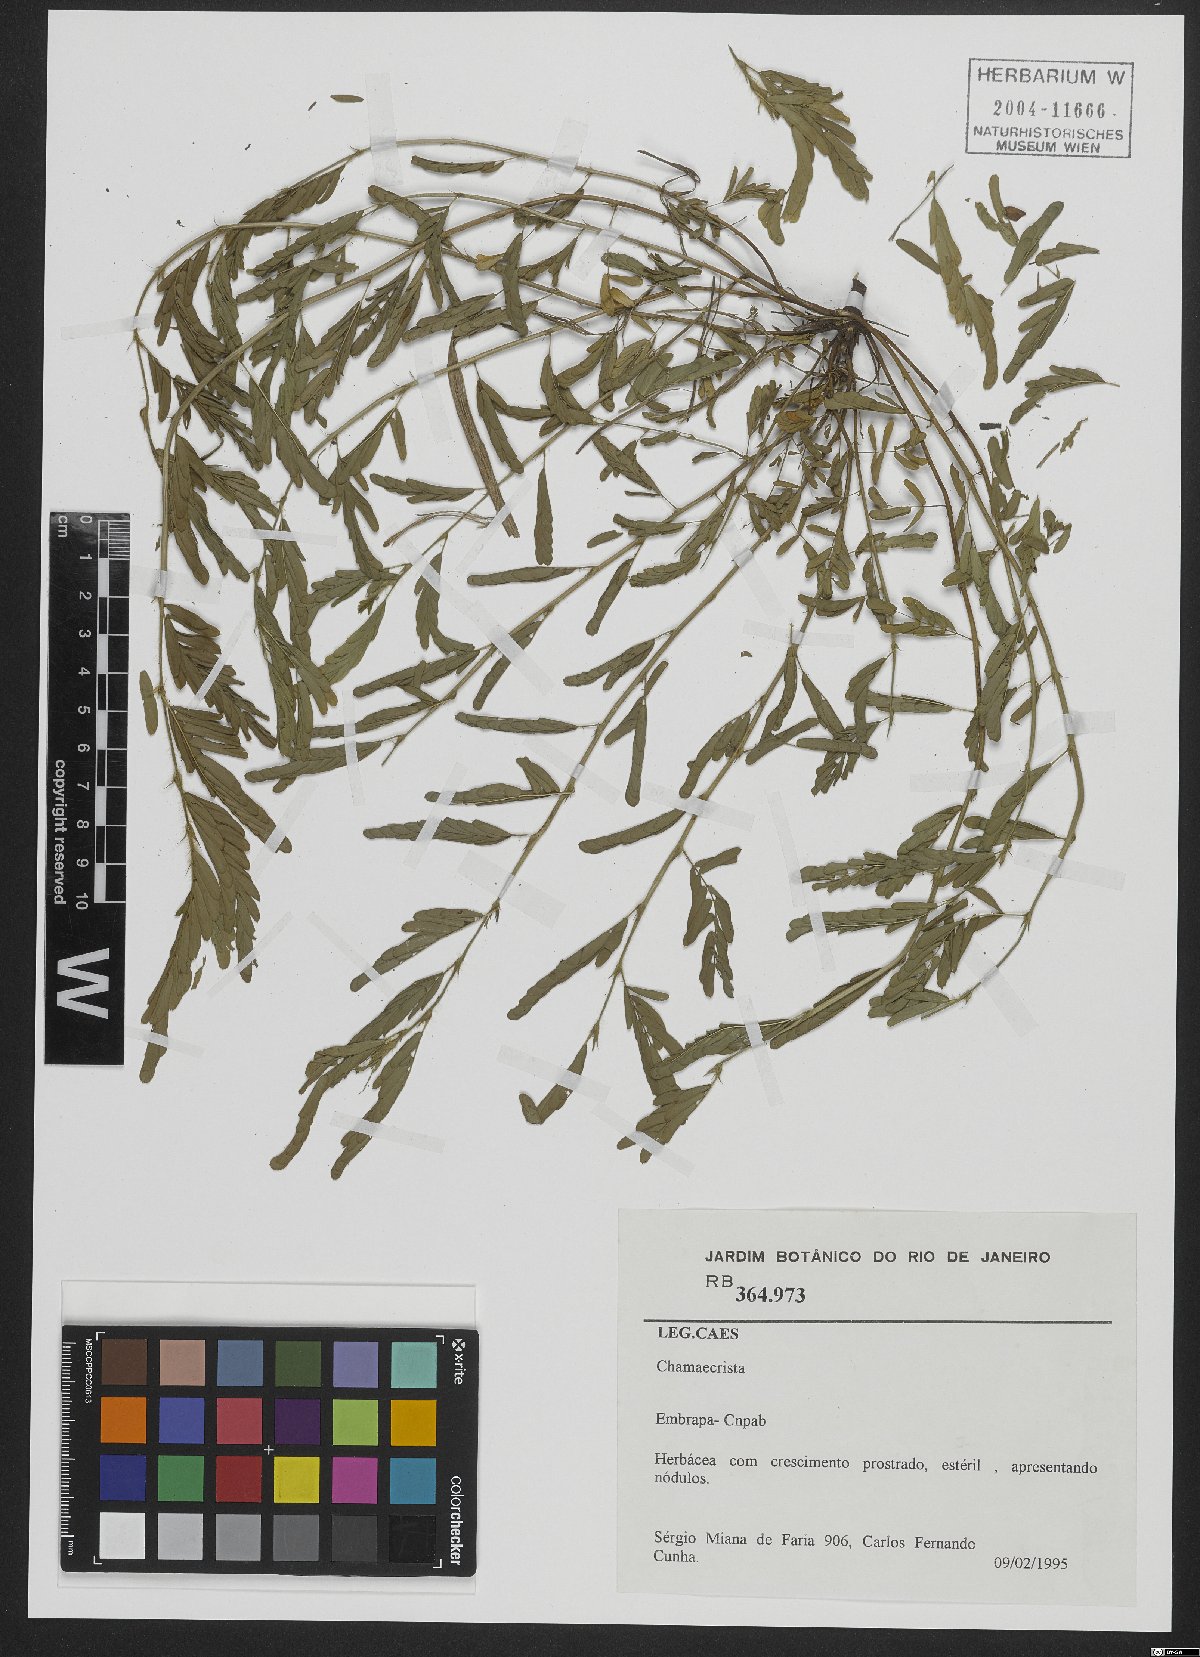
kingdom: Plantae
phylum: Tracheophyta
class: Magnoliopsida
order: Fabales
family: Fabaceae
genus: Chamaecrista
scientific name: Chamaecrista
